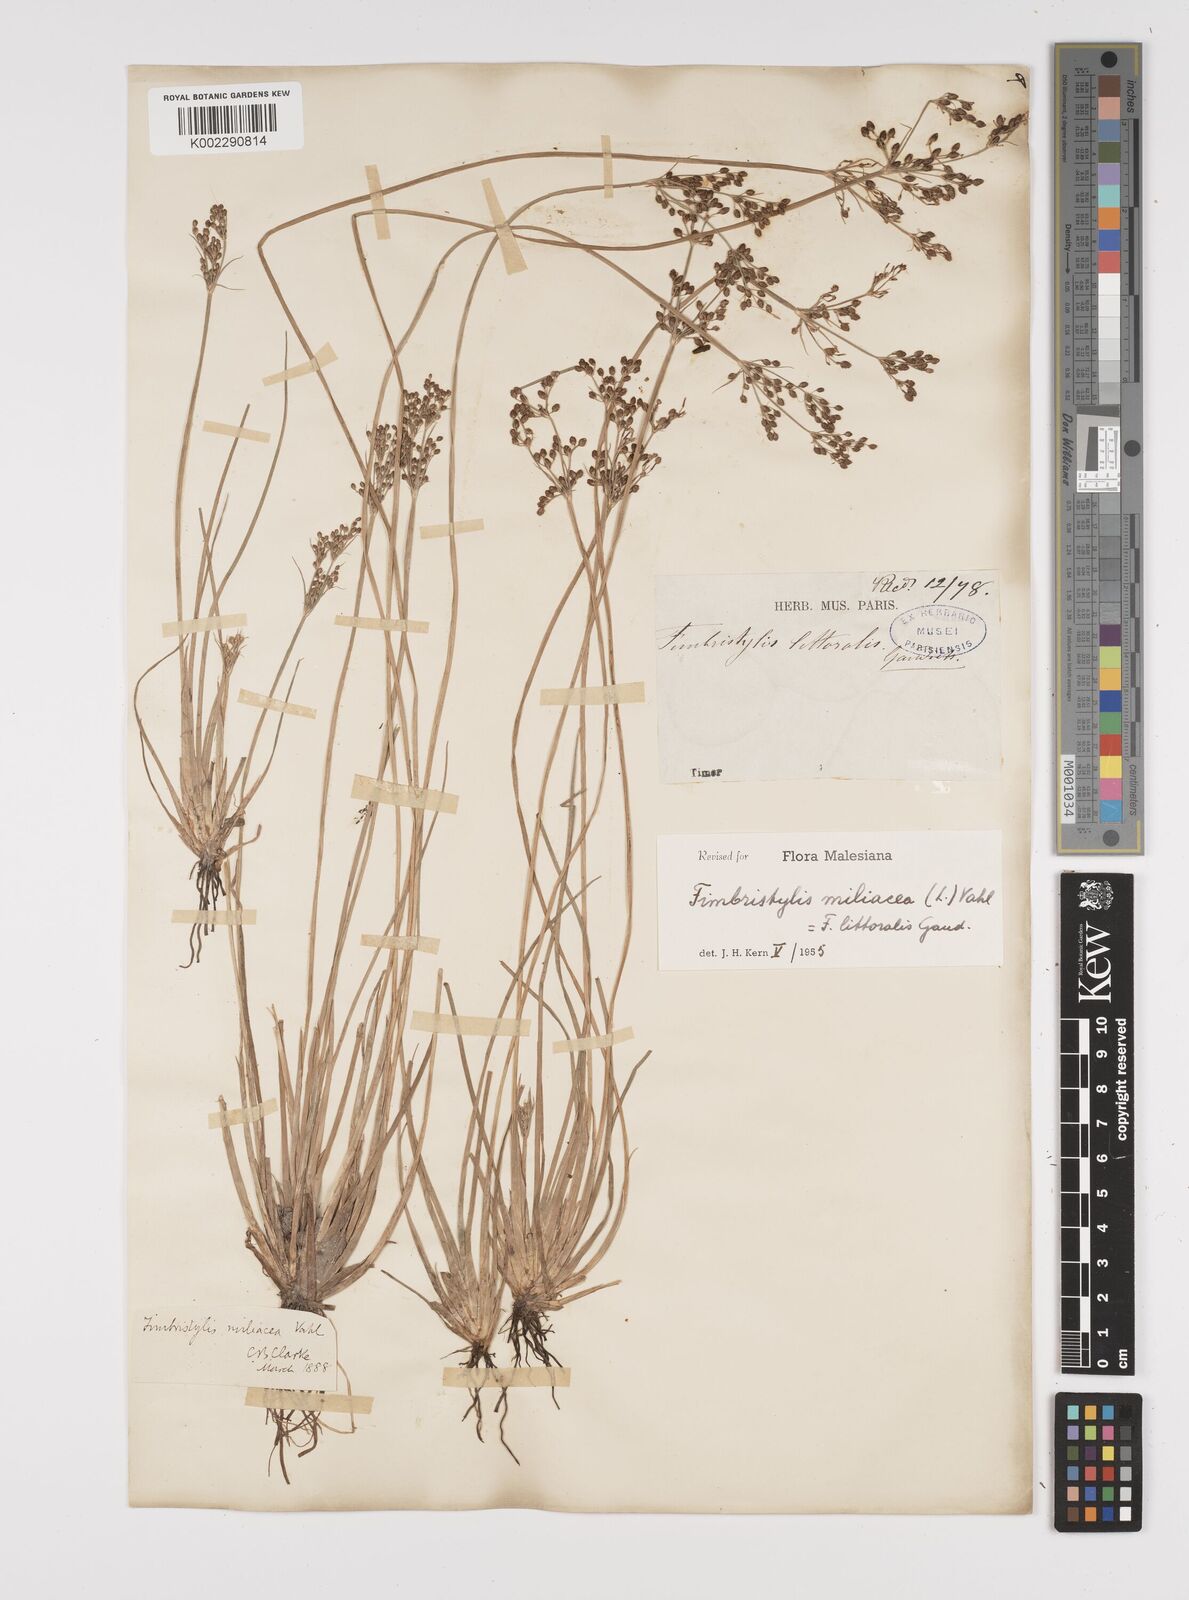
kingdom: Plantae
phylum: Tracheophyta
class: Liliopsida
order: Poales
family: Cyperaceae
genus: Fimbristylis
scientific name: Fimbristylis littoralis
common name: Fimbry
